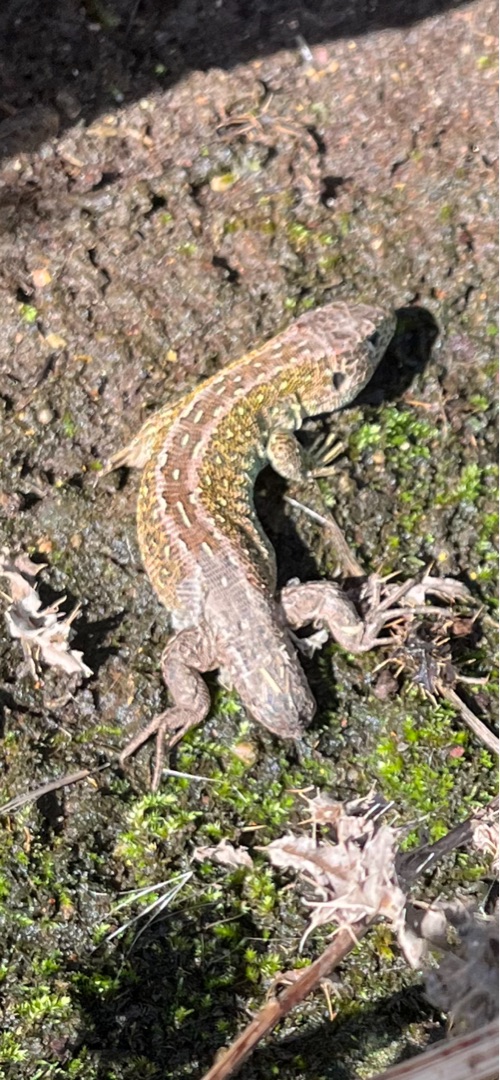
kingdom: Animalia
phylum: Chordata
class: Squamata
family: Lacertidae
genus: Lacerta
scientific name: Lacerta agilis
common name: Markfirben
